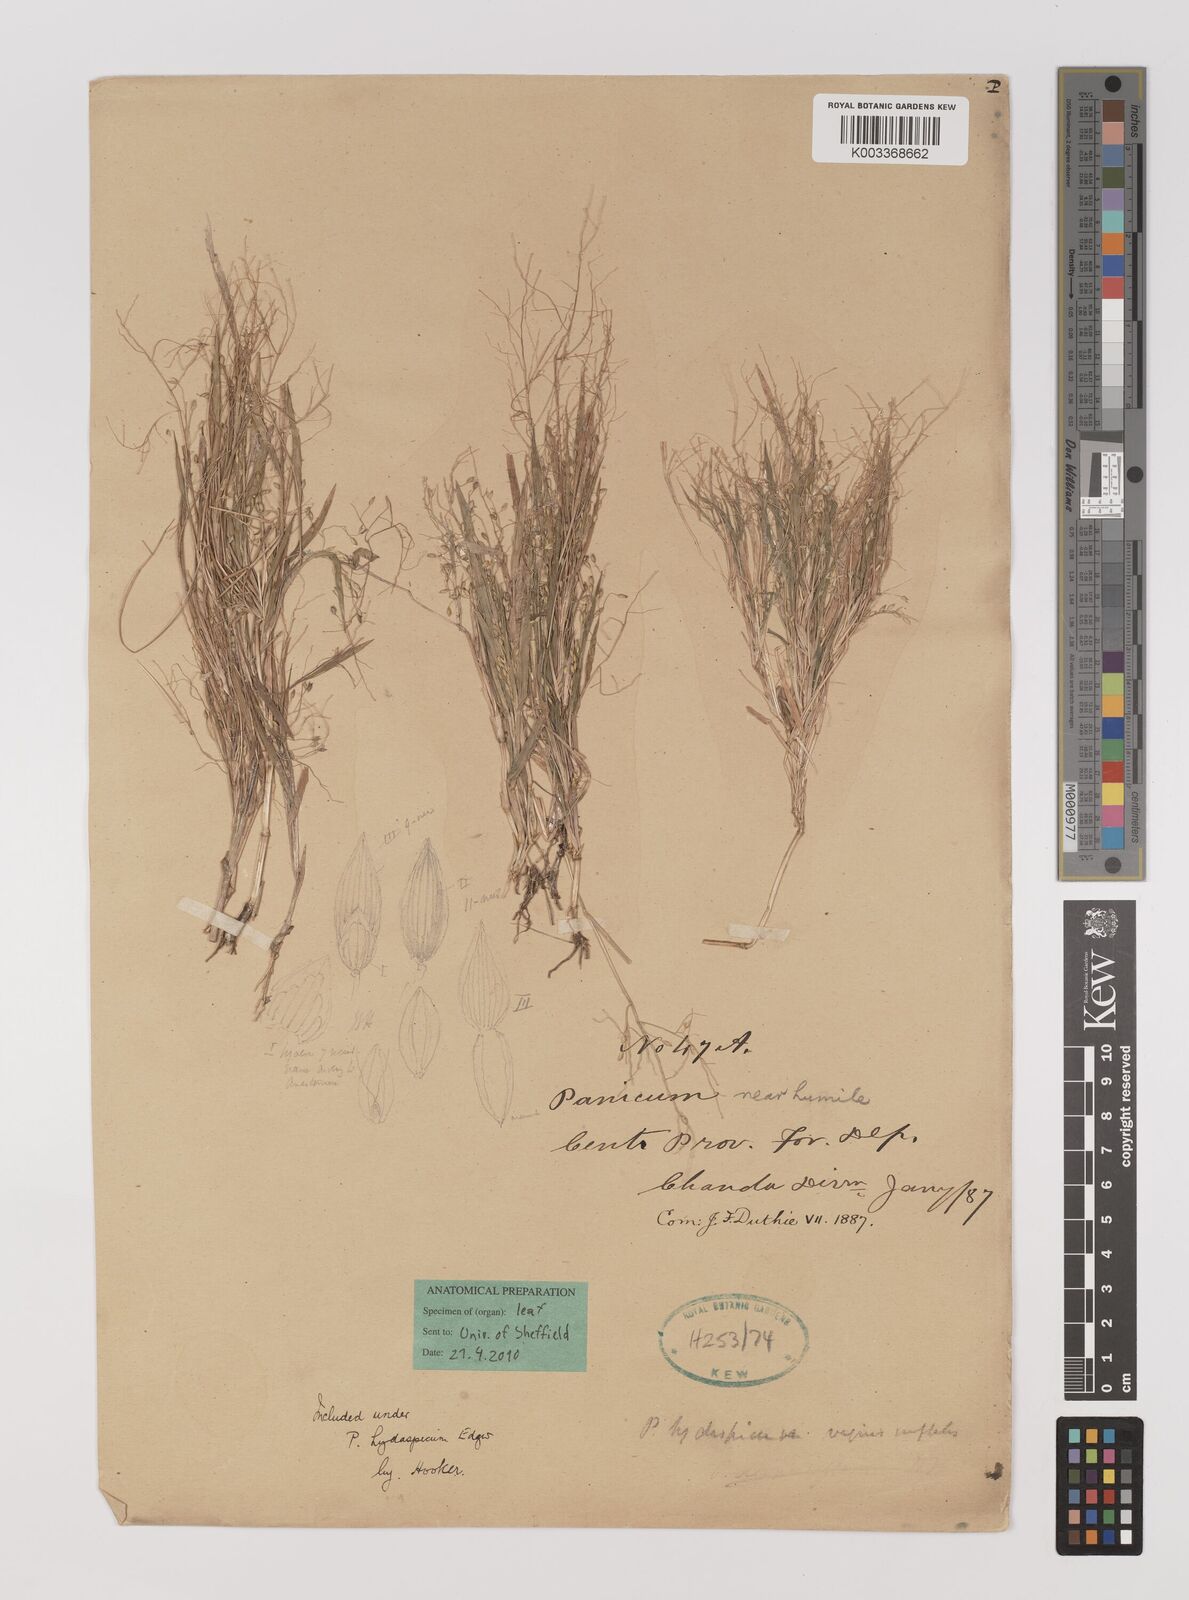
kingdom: Plantae
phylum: Tracheophyta
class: Liliopsida
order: Poales
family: Poaceae
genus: Panicum
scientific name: Panicum paianum
